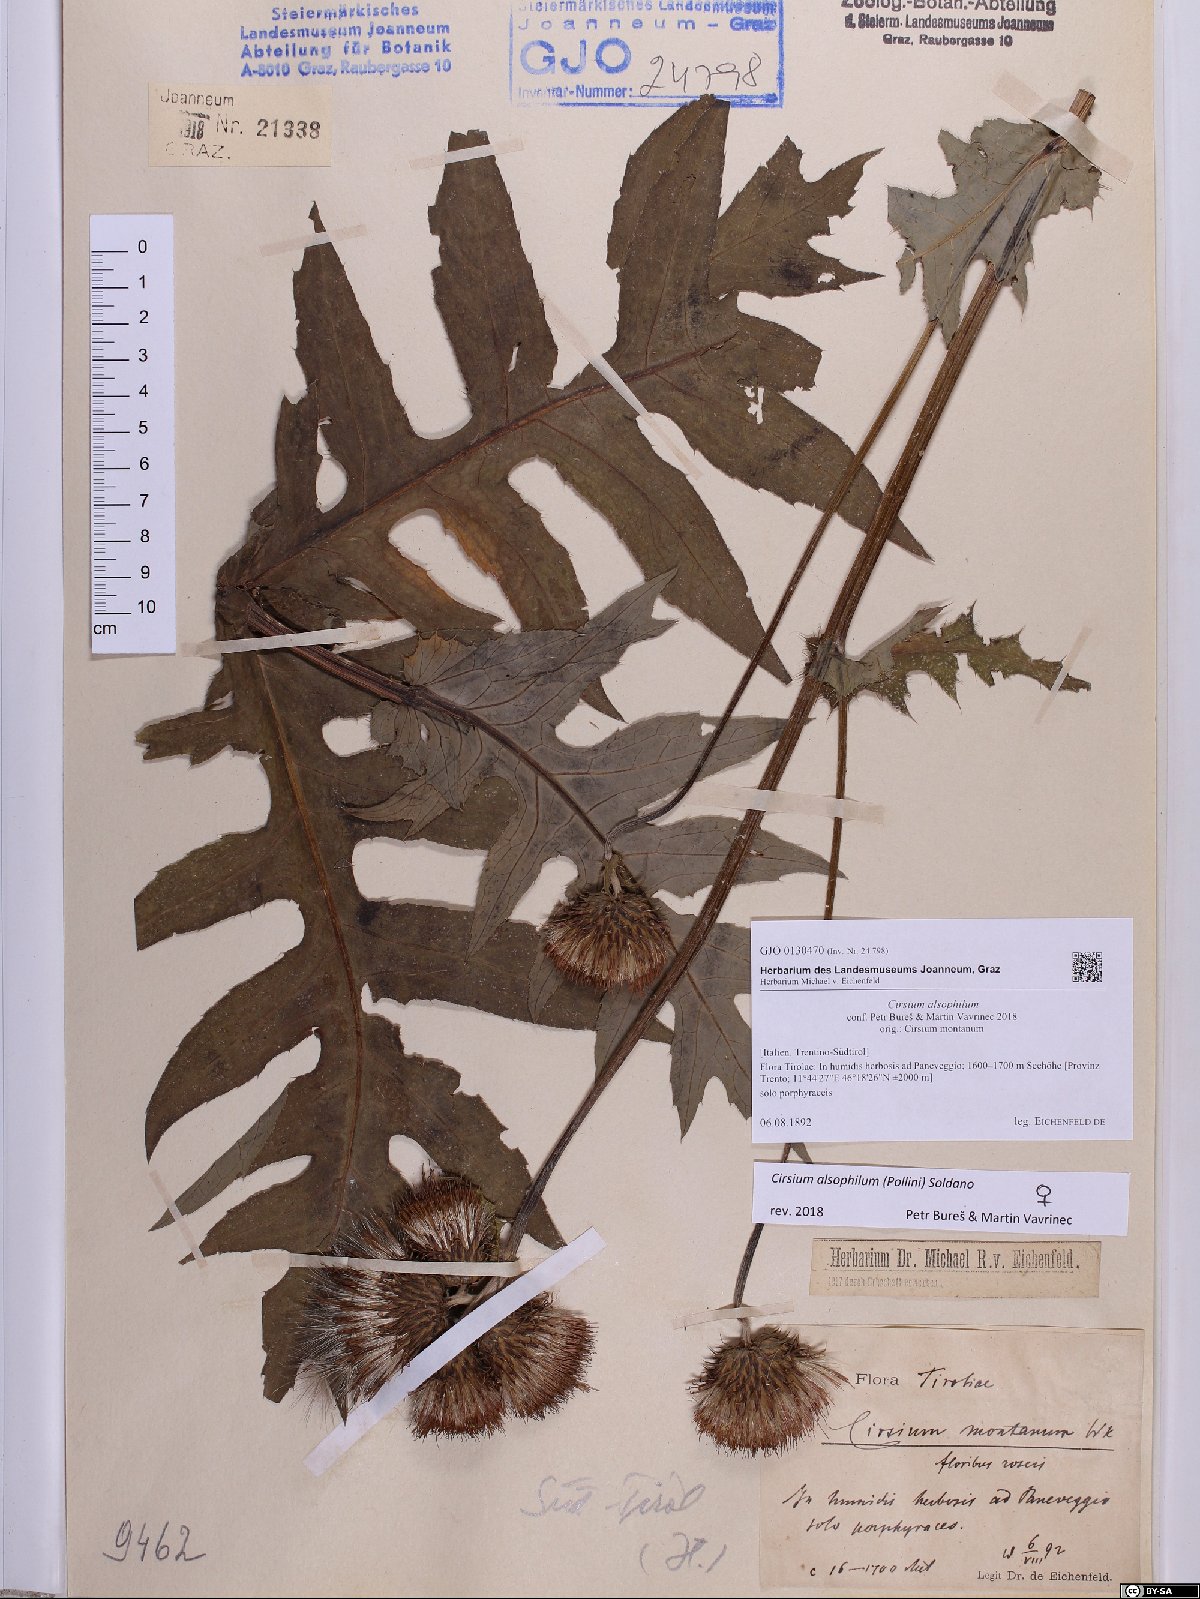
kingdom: Plantae
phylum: Tracheophyta
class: Magnoliopsida
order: Asterales
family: Asteraceae
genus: Cirsium
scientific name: Cirsium alsophilum
